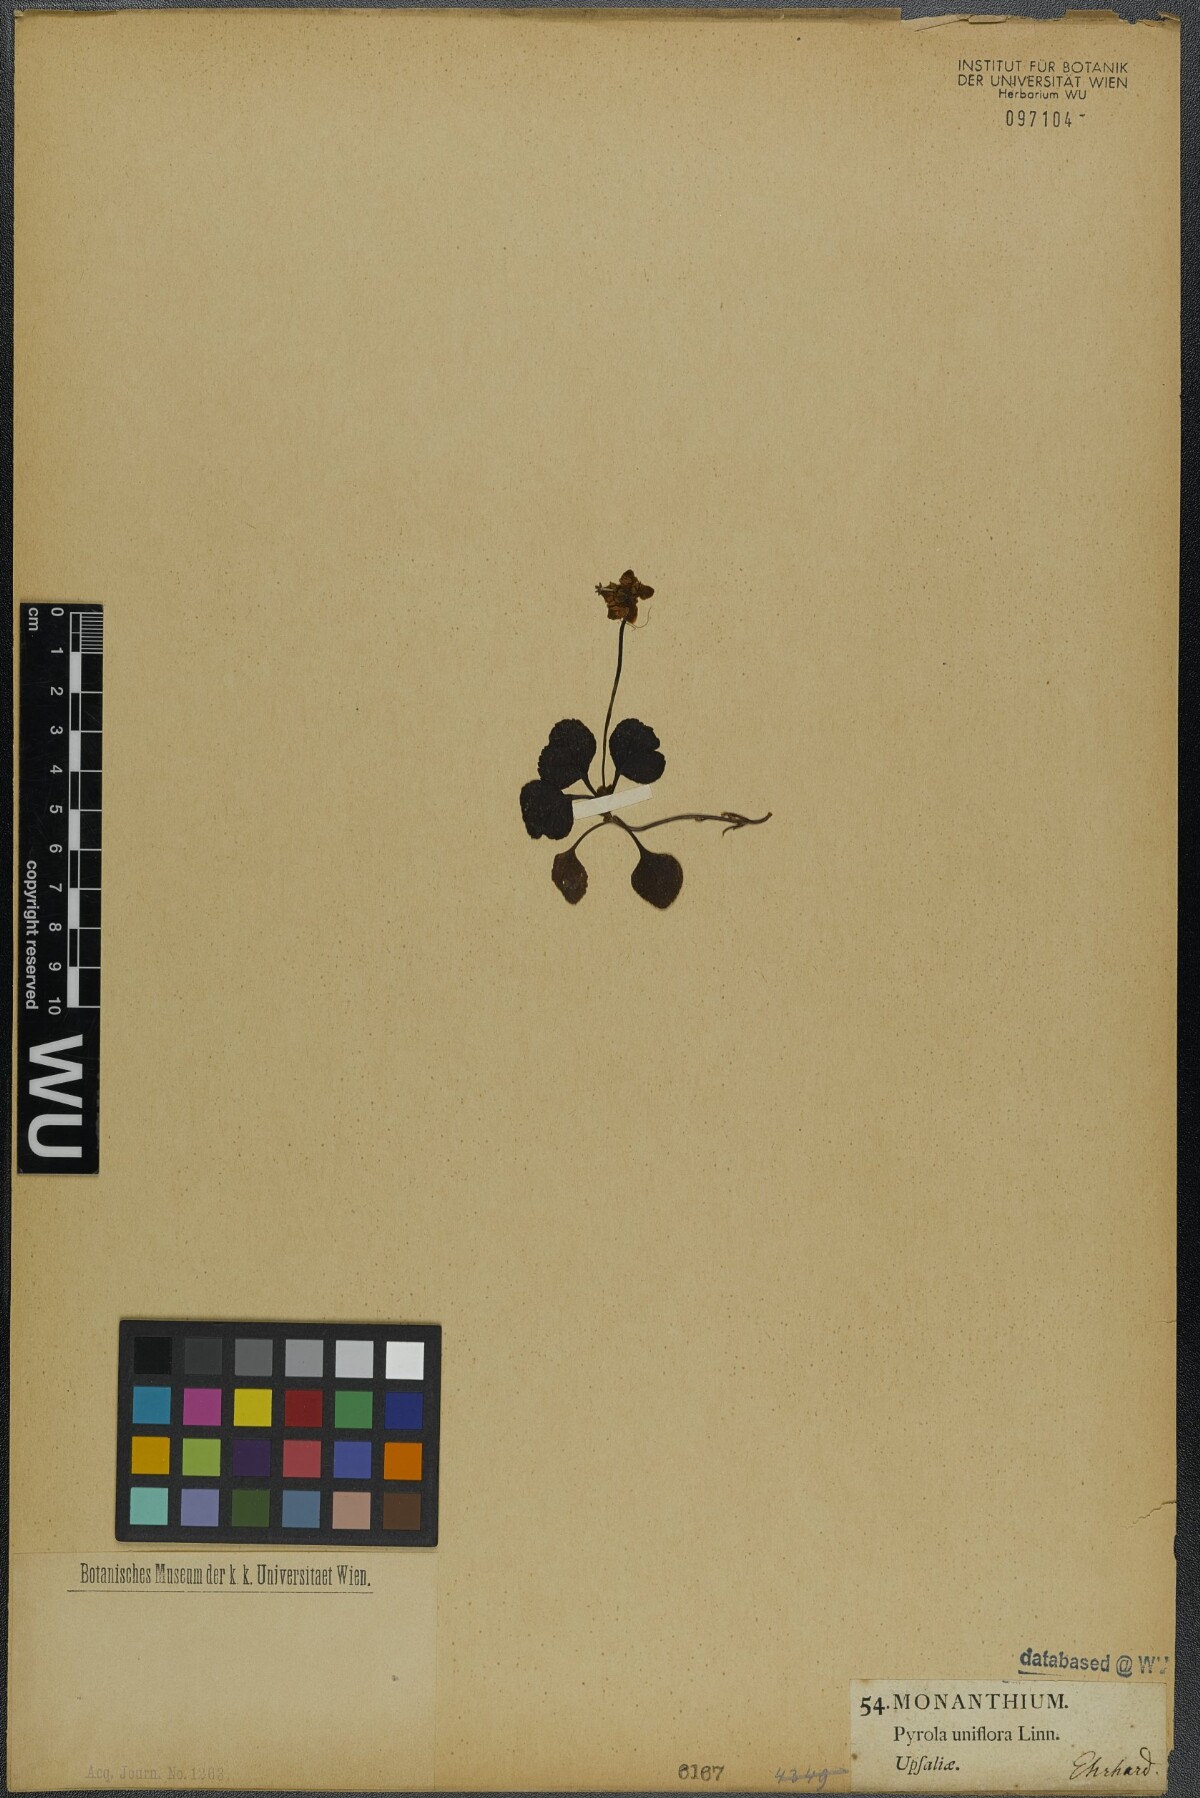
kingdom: Plantae
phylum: Tracheophyta
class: Magnoliopsida
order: Ericales
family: Ericaceae
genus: Moneses
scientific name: Moneses uniflora
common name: One-flowered wintergreen
